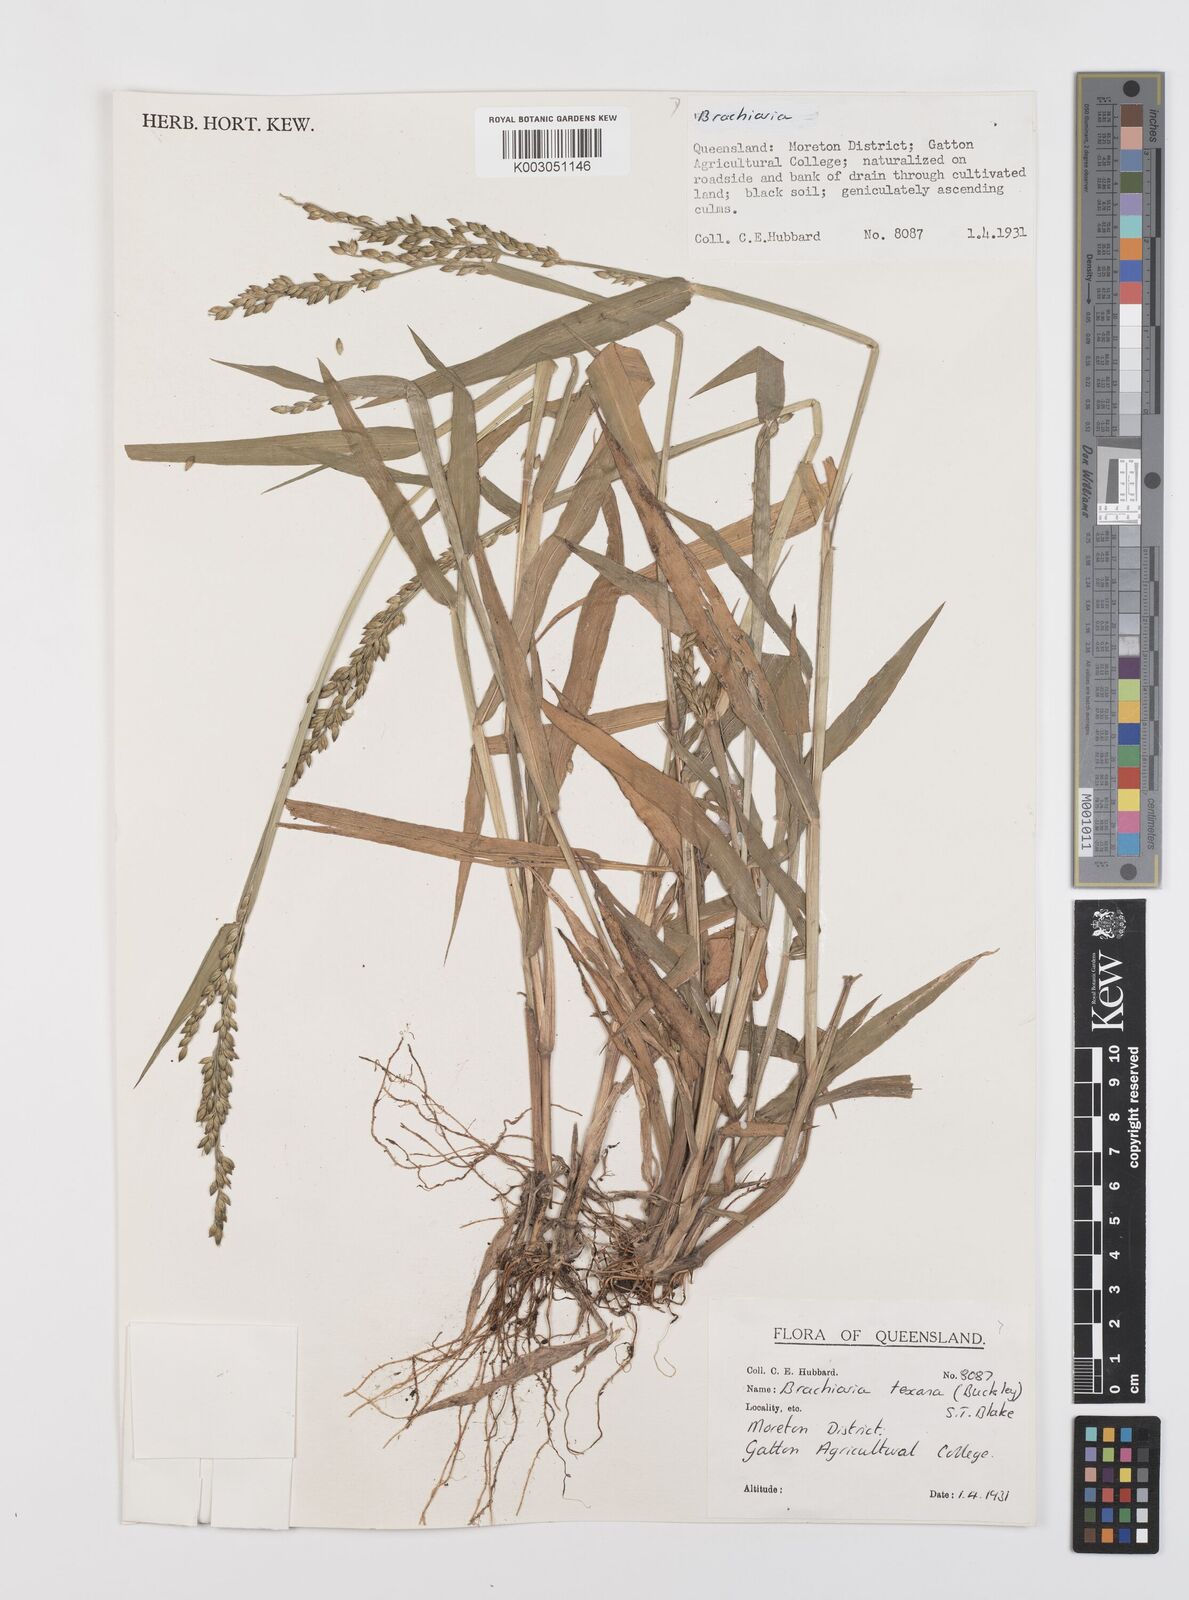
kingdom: Plantae
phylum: Tracheophyta
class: Liliopsida
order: Poales
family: Poaceae
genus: Urochloa
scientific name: Urochloa texana
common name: Texas millet
